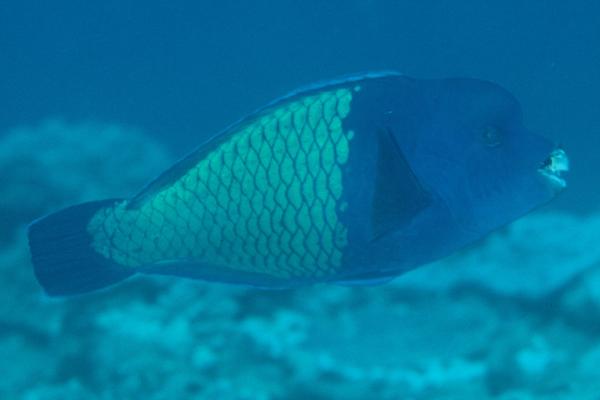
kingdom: Animalia
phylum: Chordata
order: Perciformes
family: Scaridae
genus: Chlorurus
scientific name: Chlorurus cyanescens
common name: Blue humphead parrotfish
